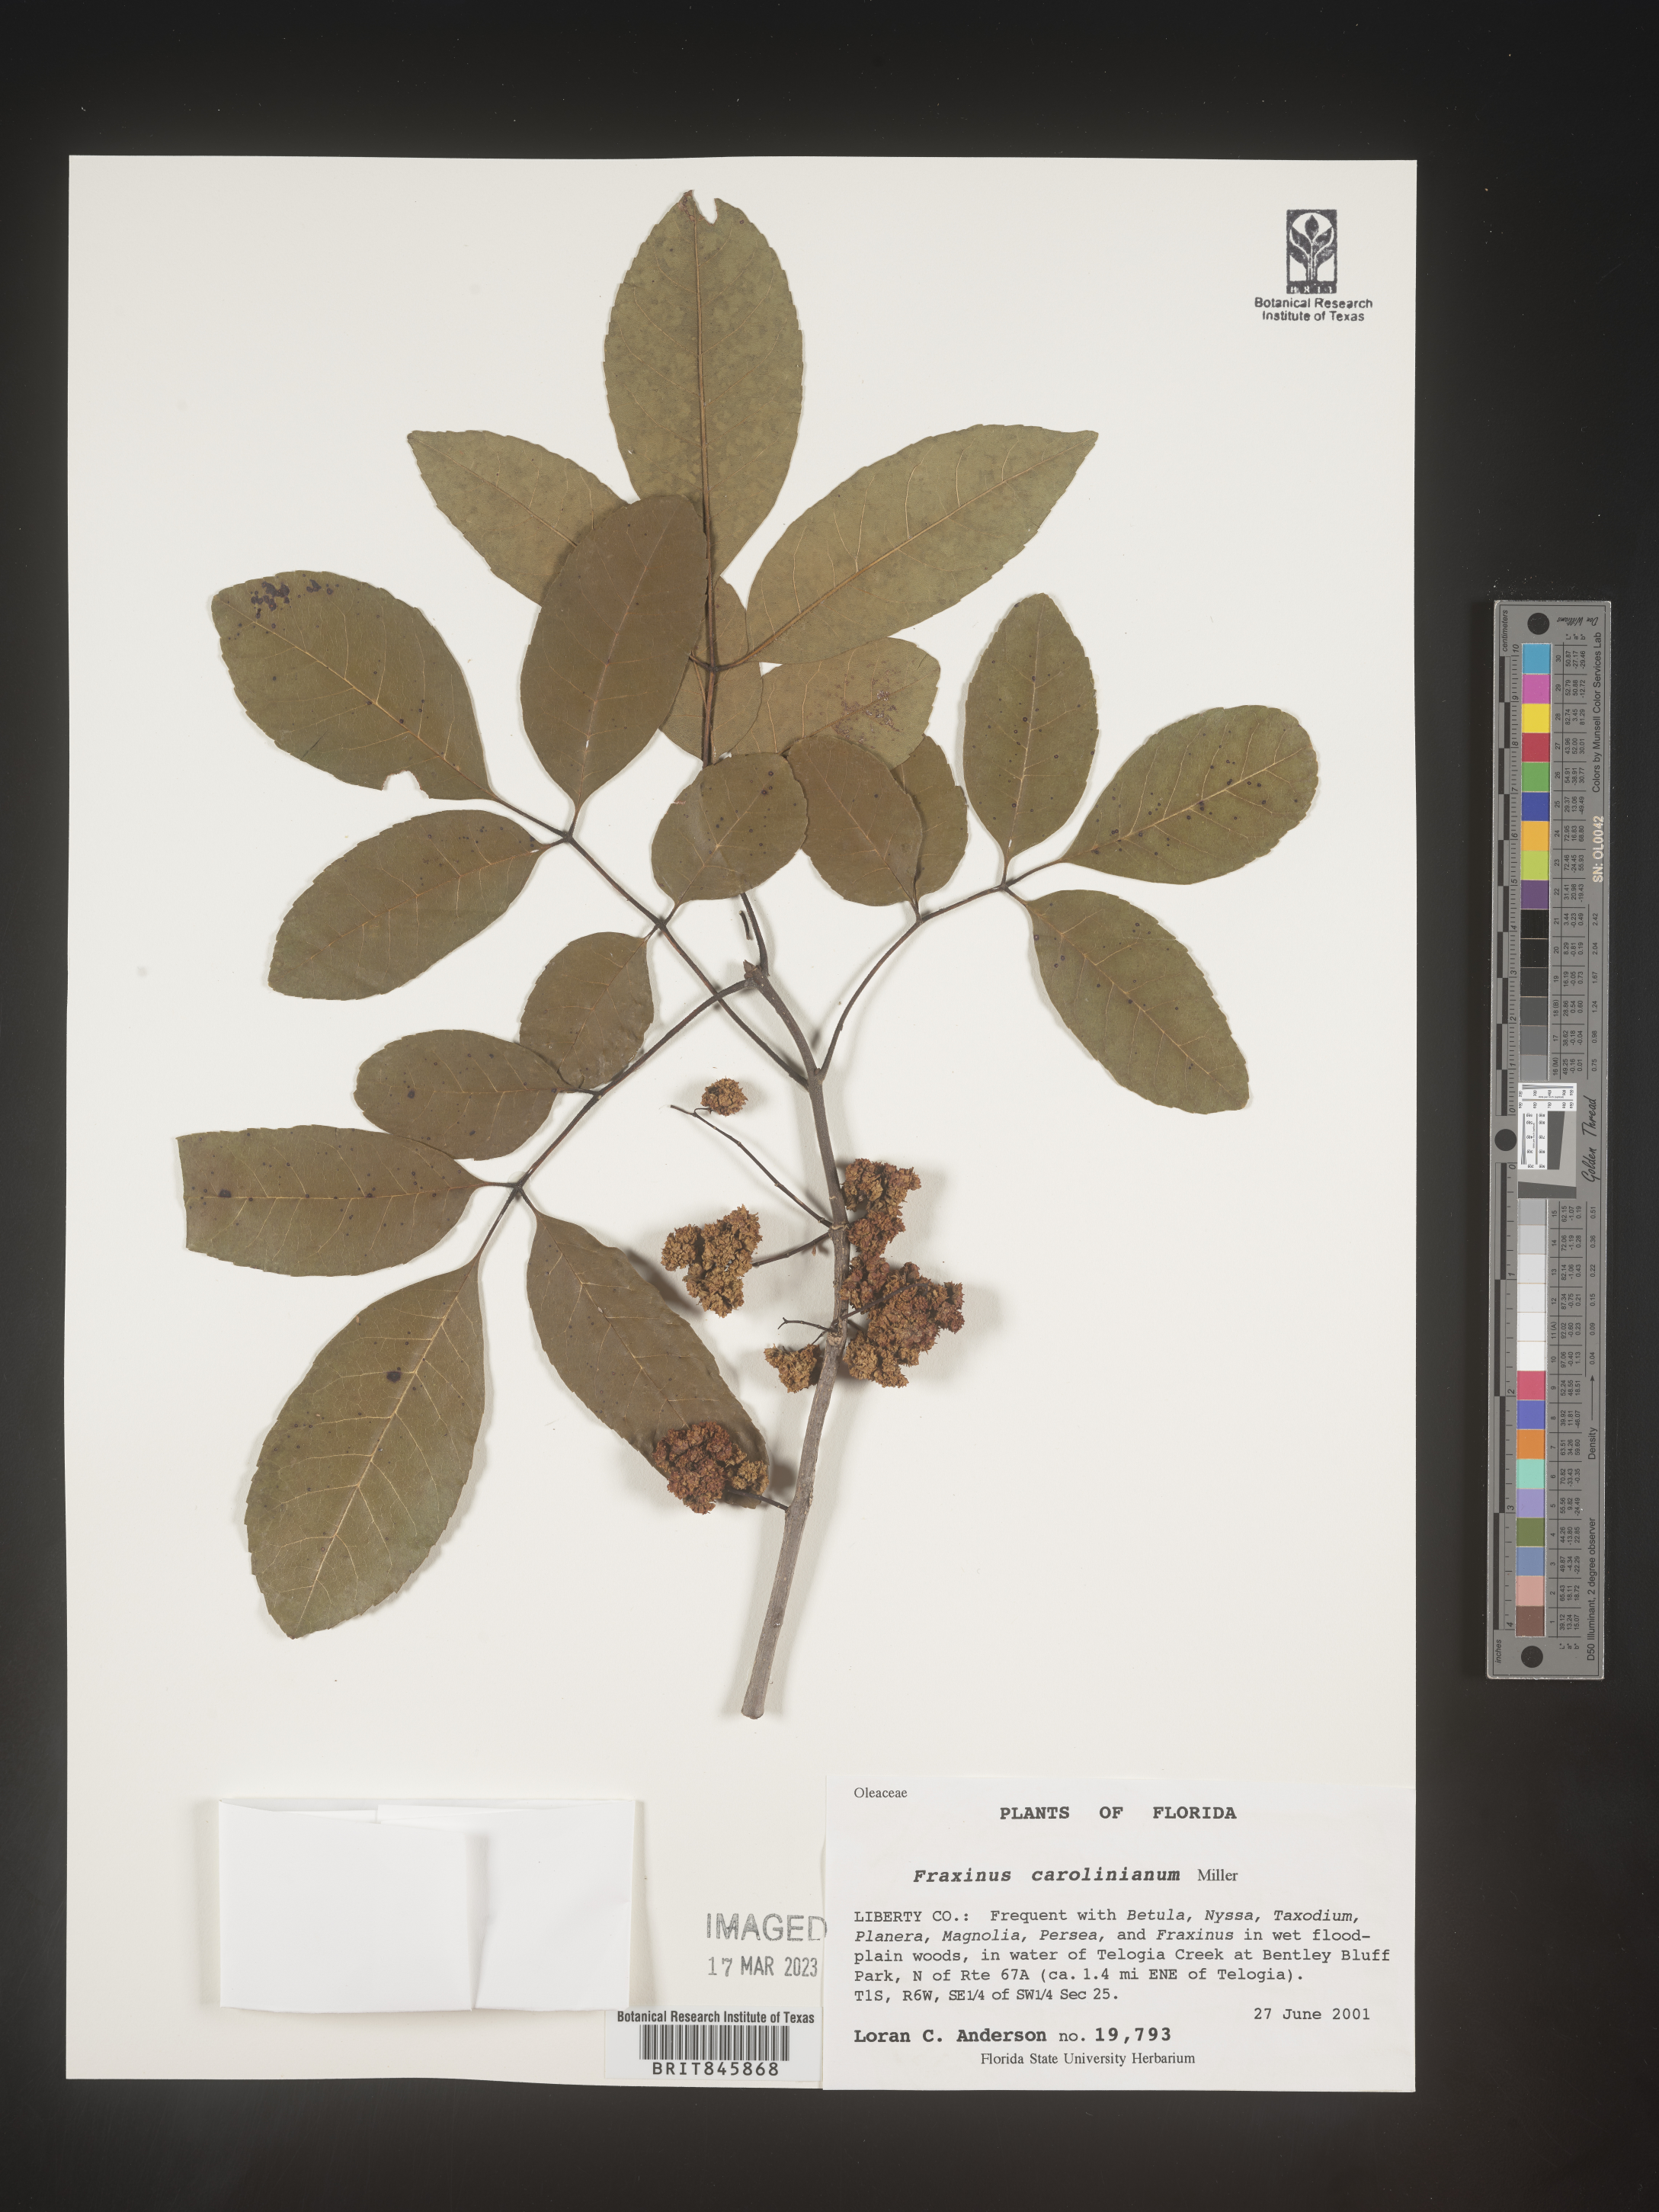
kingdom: Plantae
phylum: Tracheophyta
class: Magnoliopsida
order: Lamiales
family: Oleaceae
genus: Fraxinus
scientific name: Fraxinus caroliniana
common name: Carolina ash
